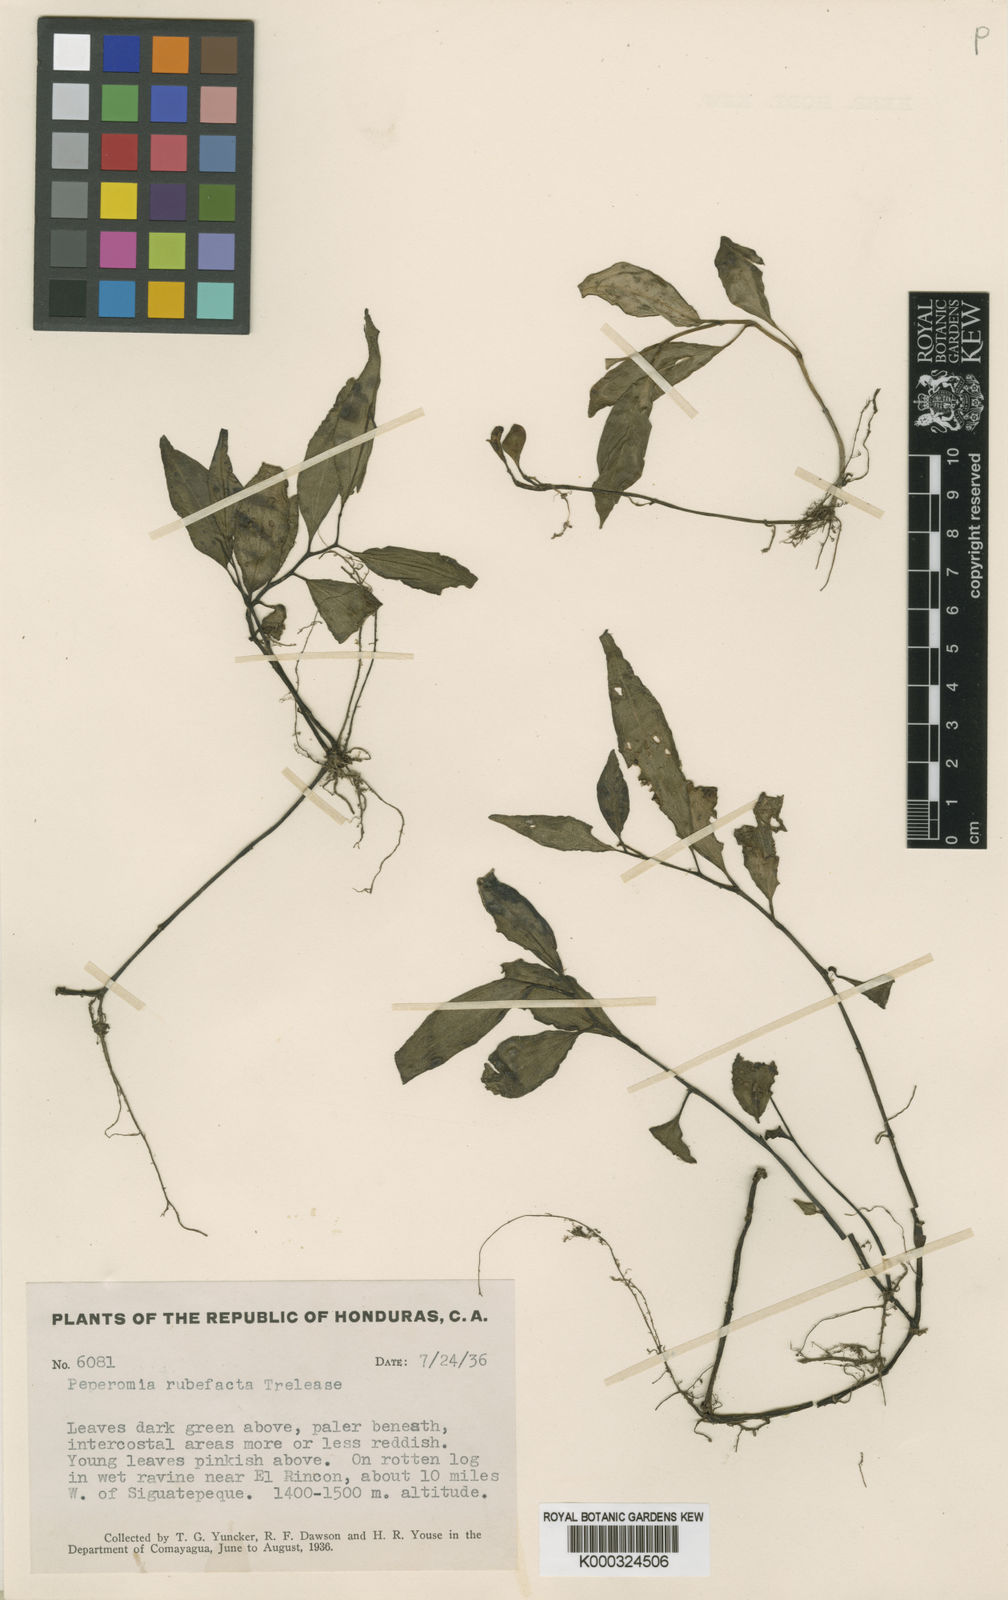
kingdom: Plantae
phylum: Tracheophyta
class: Magnoliopsida
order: Piperales
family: Piperaceae
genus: Peperomia
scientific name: Peperomia filicaulis
